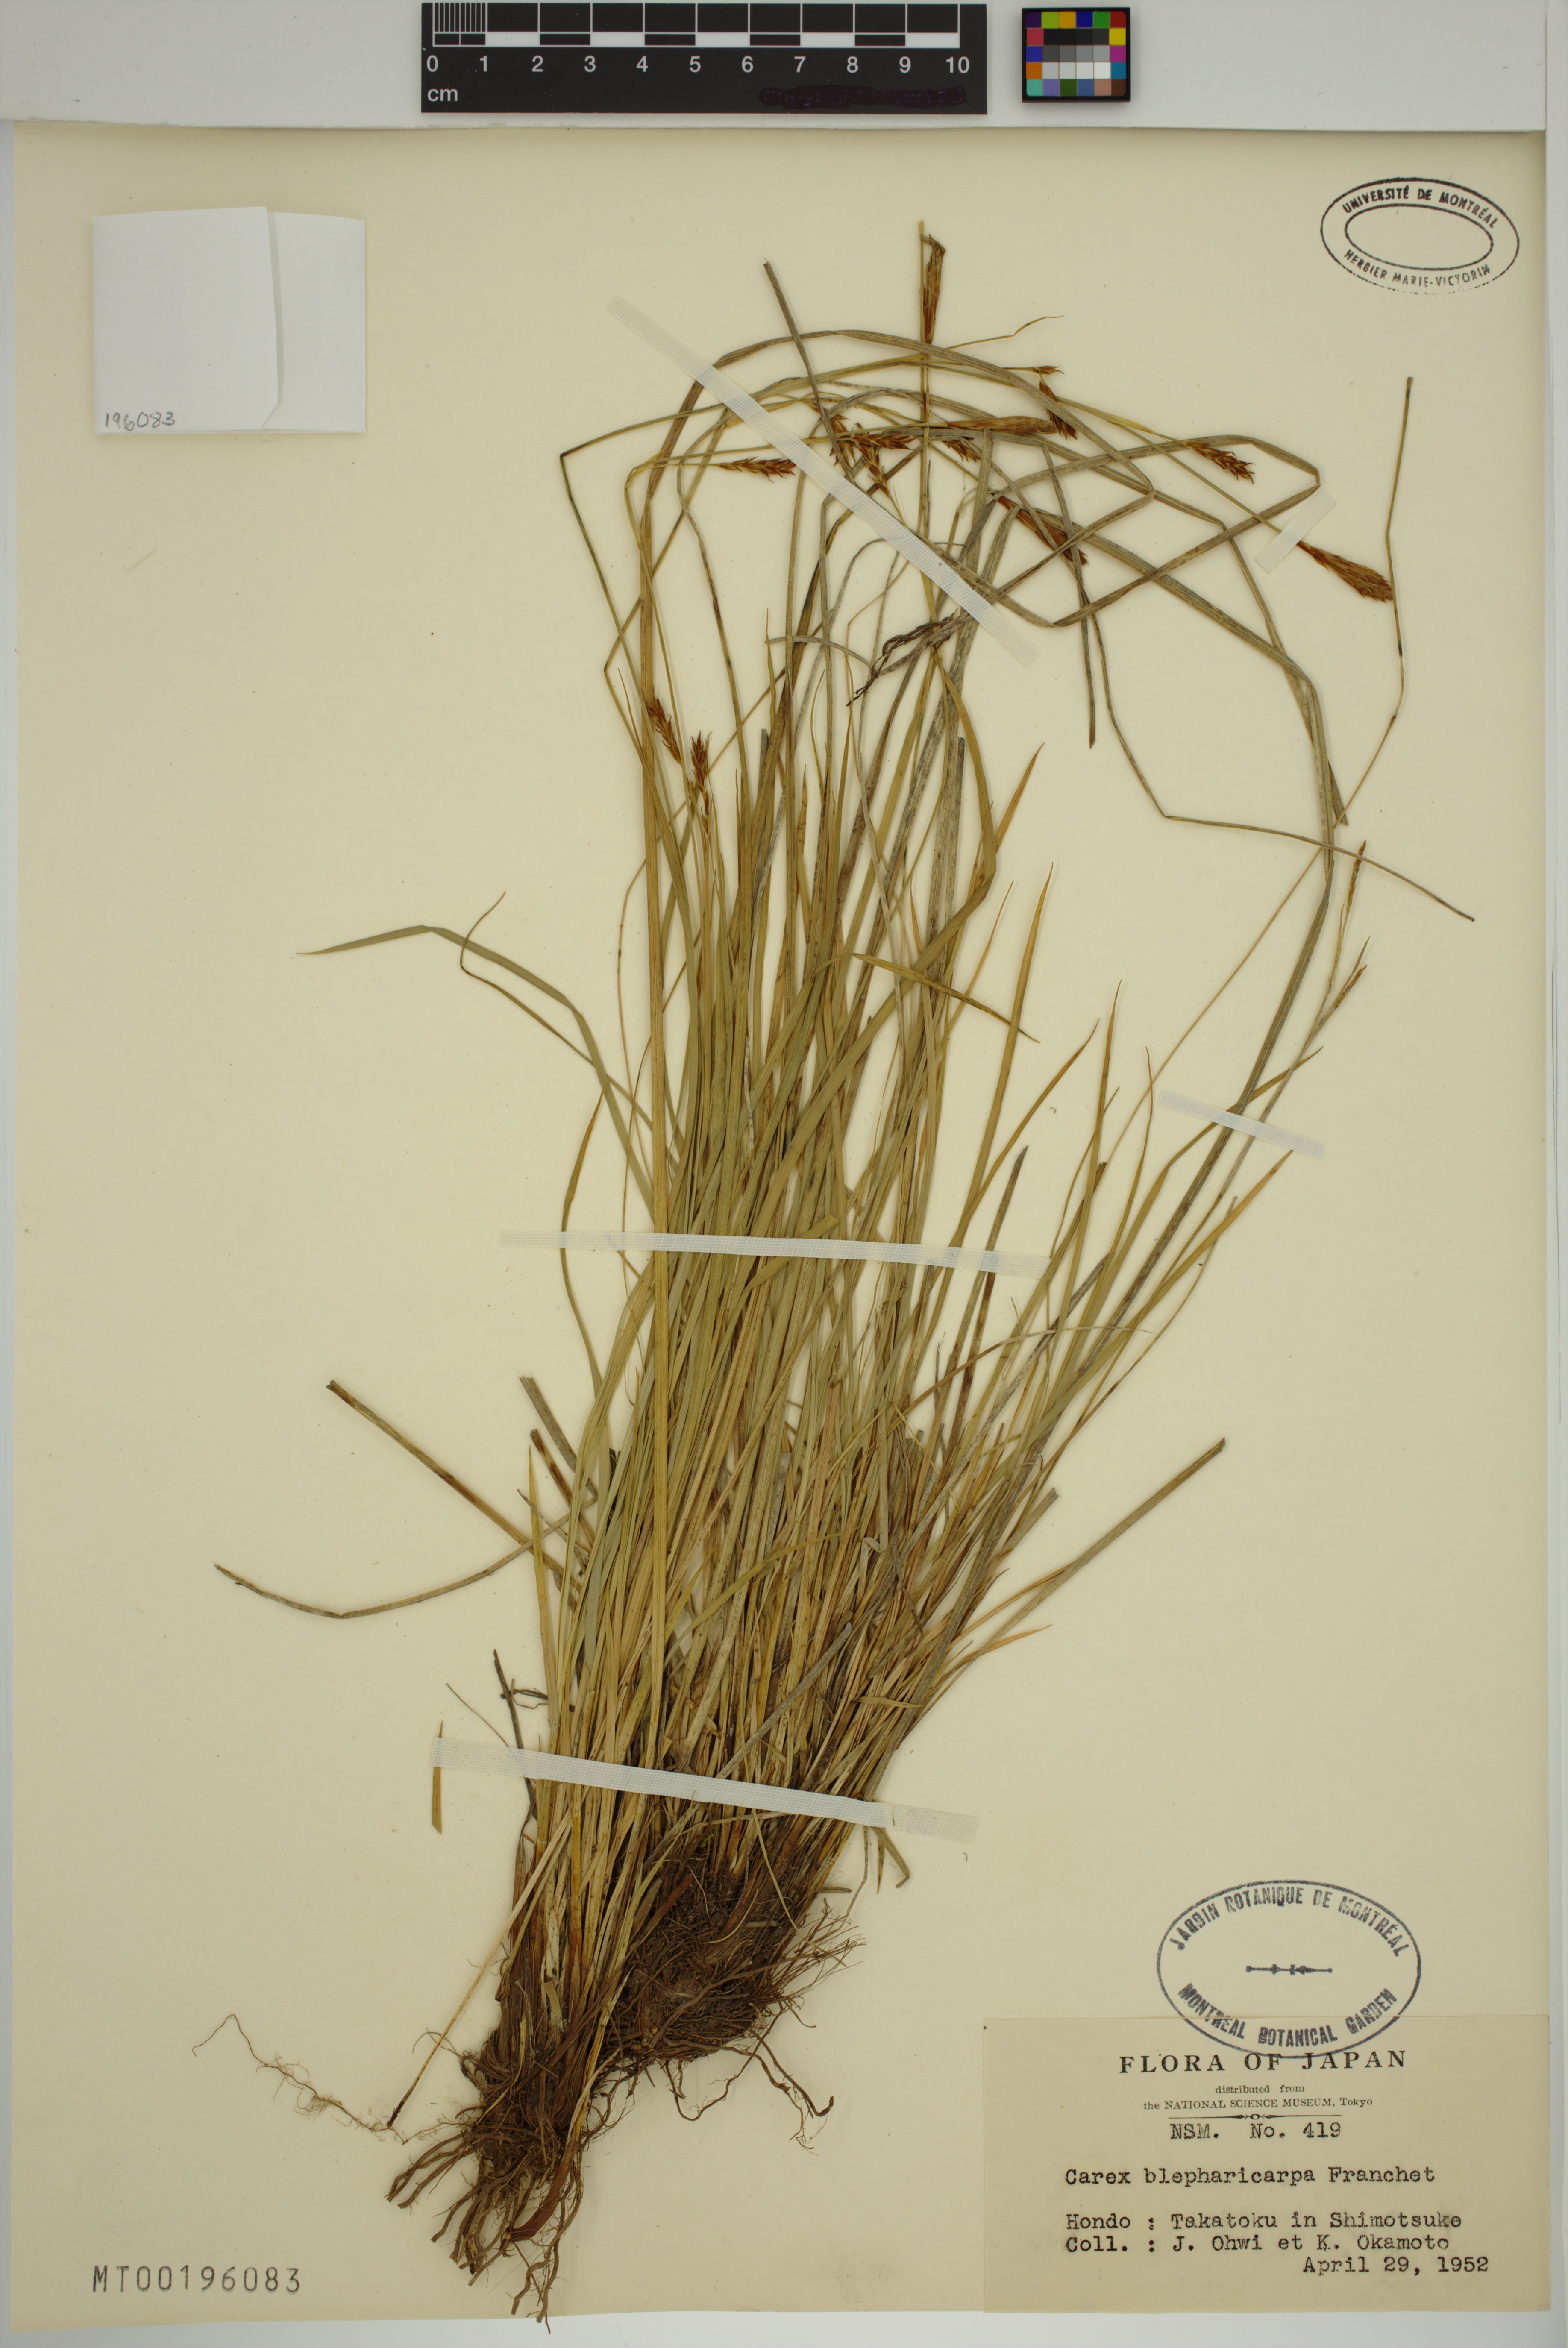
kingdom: Plantae
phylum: Tracheophyta
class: Liliopsida
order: Poales
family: Cyperaceae
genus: Carex
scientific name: Carex blepharicarpa
